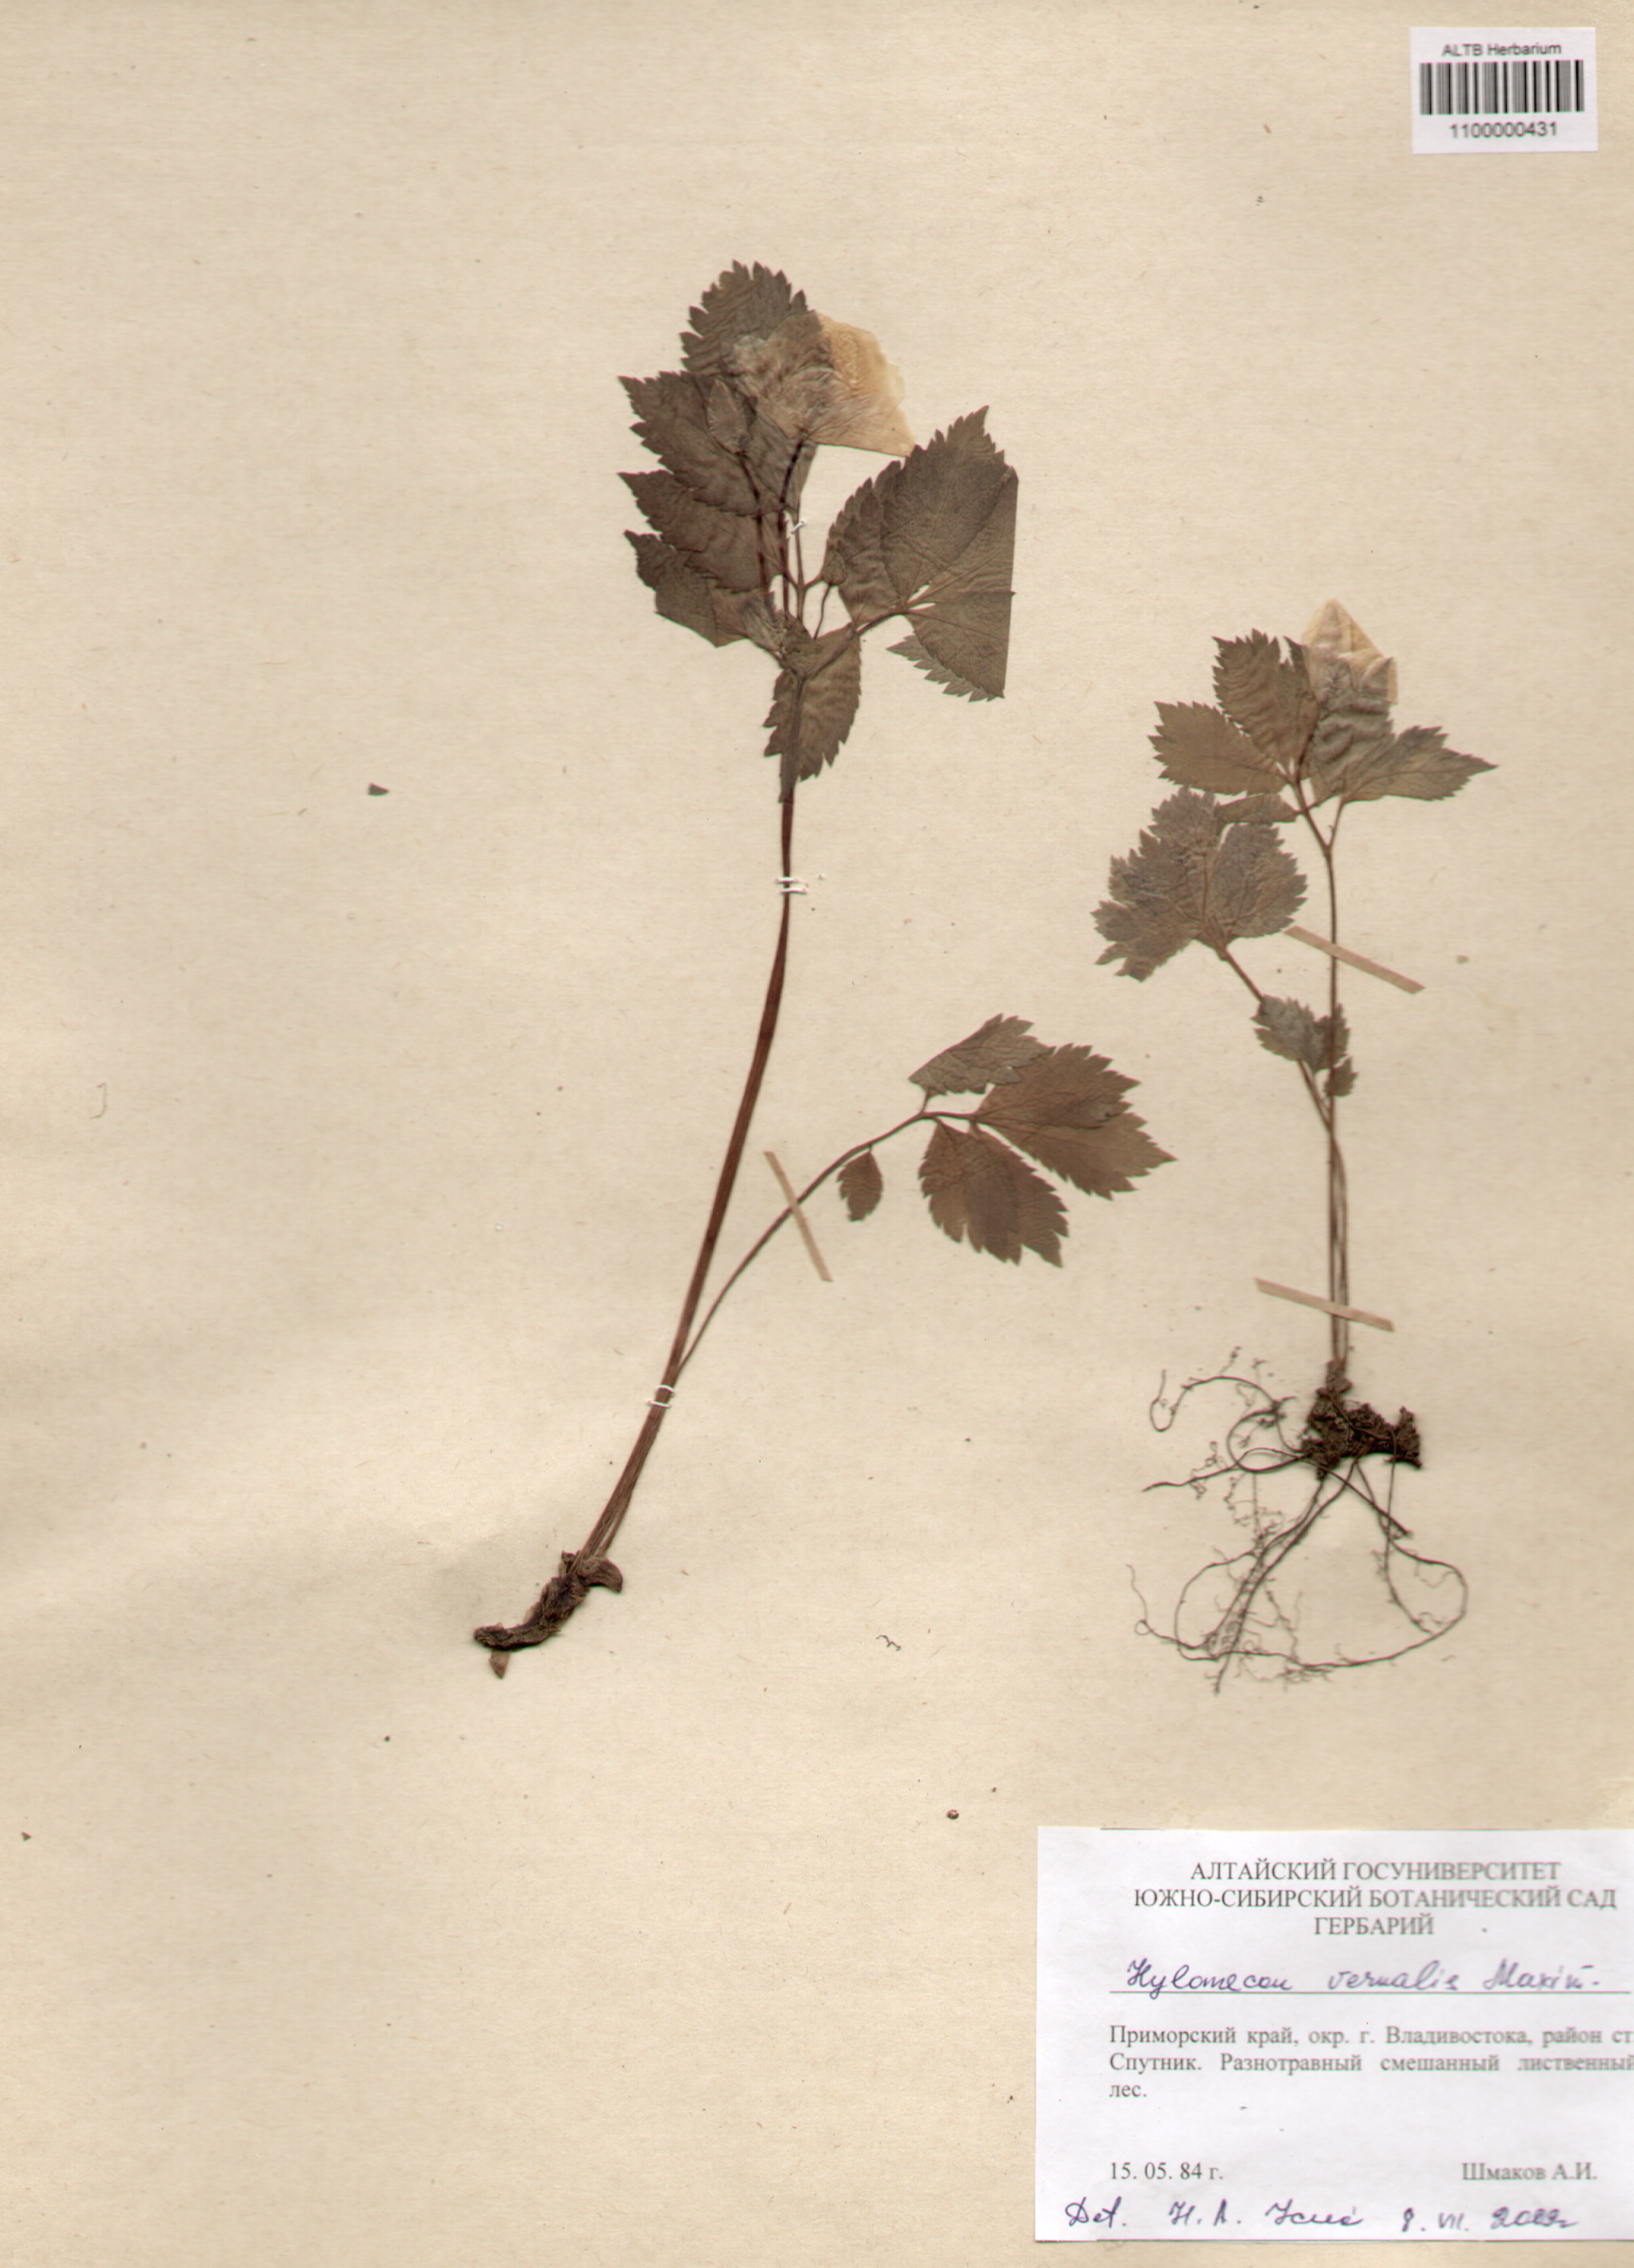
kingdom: Plantae
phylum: Tracheophyta
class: Magnoliopsida
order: Ranunculales
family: Papaveraceae
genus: Glaucium
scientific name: Glaucium
